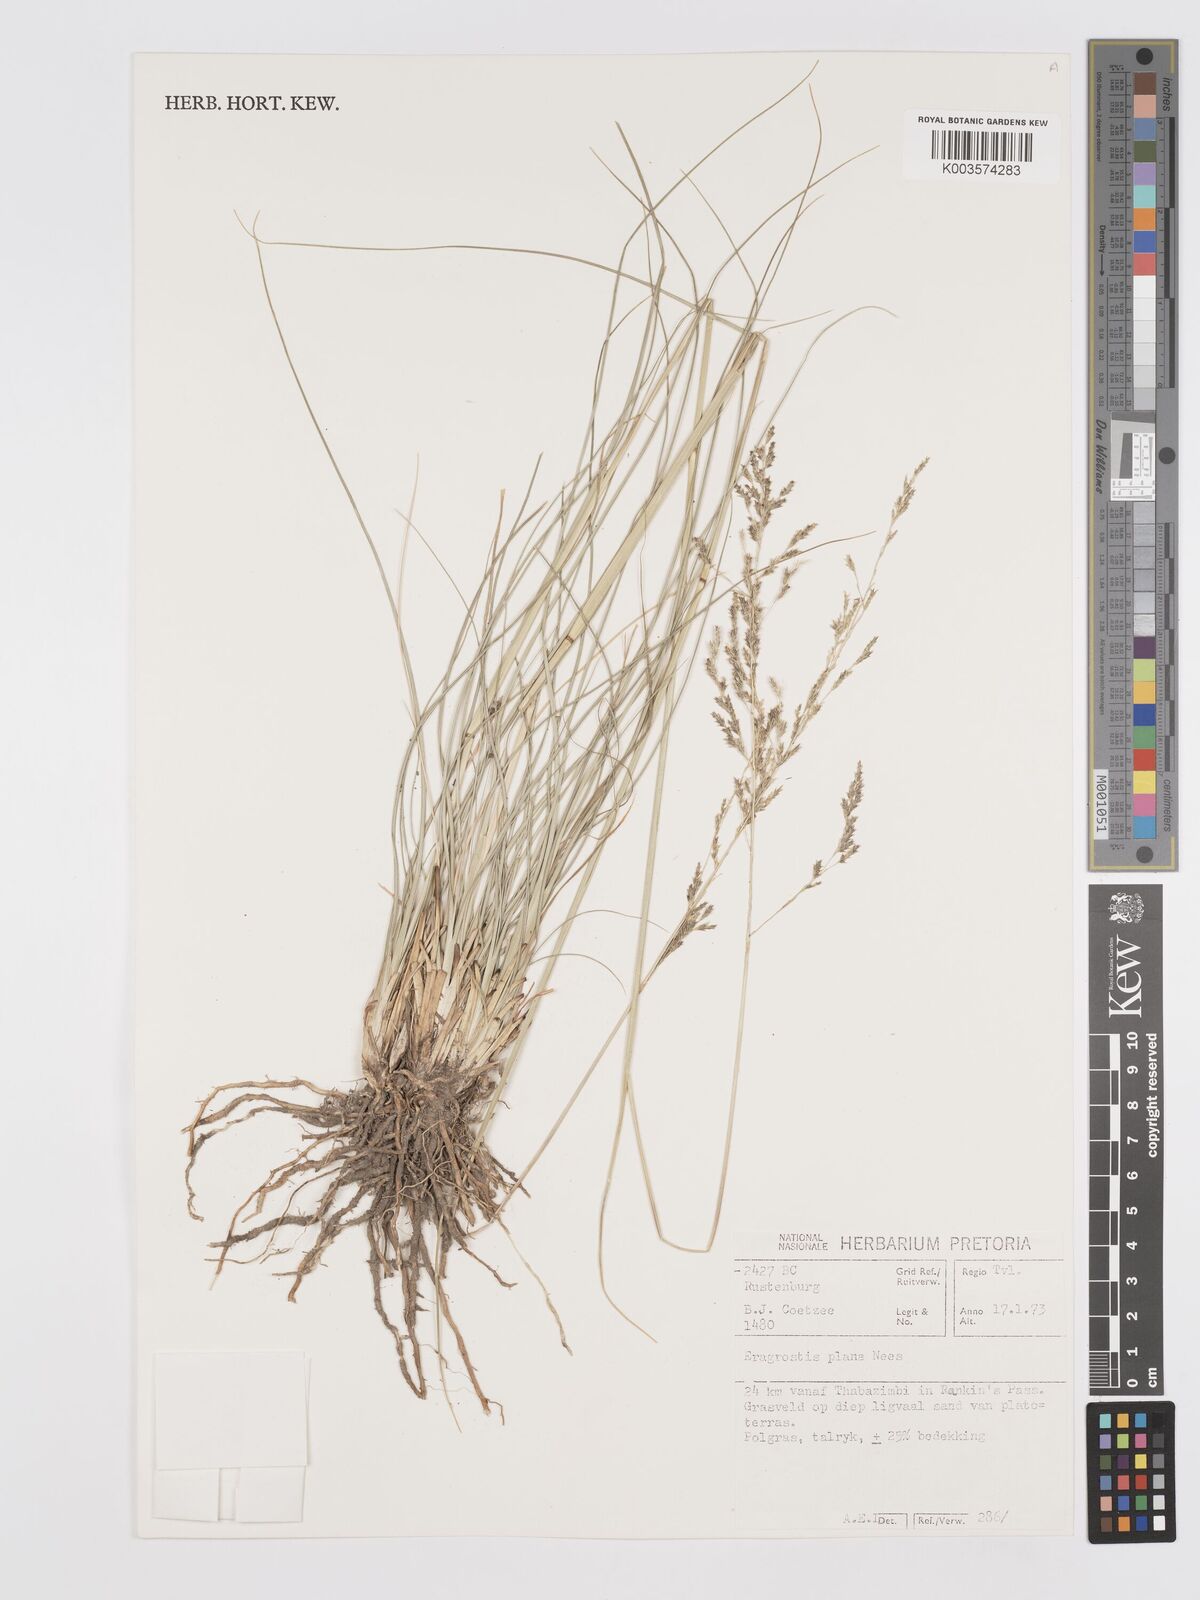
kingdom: Plantae
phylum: Tracheophyta
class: Liliopsida
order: Poales
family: Poaceae
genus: Eragrostis
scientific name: Eragrostis plana
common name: South african lovegrass
